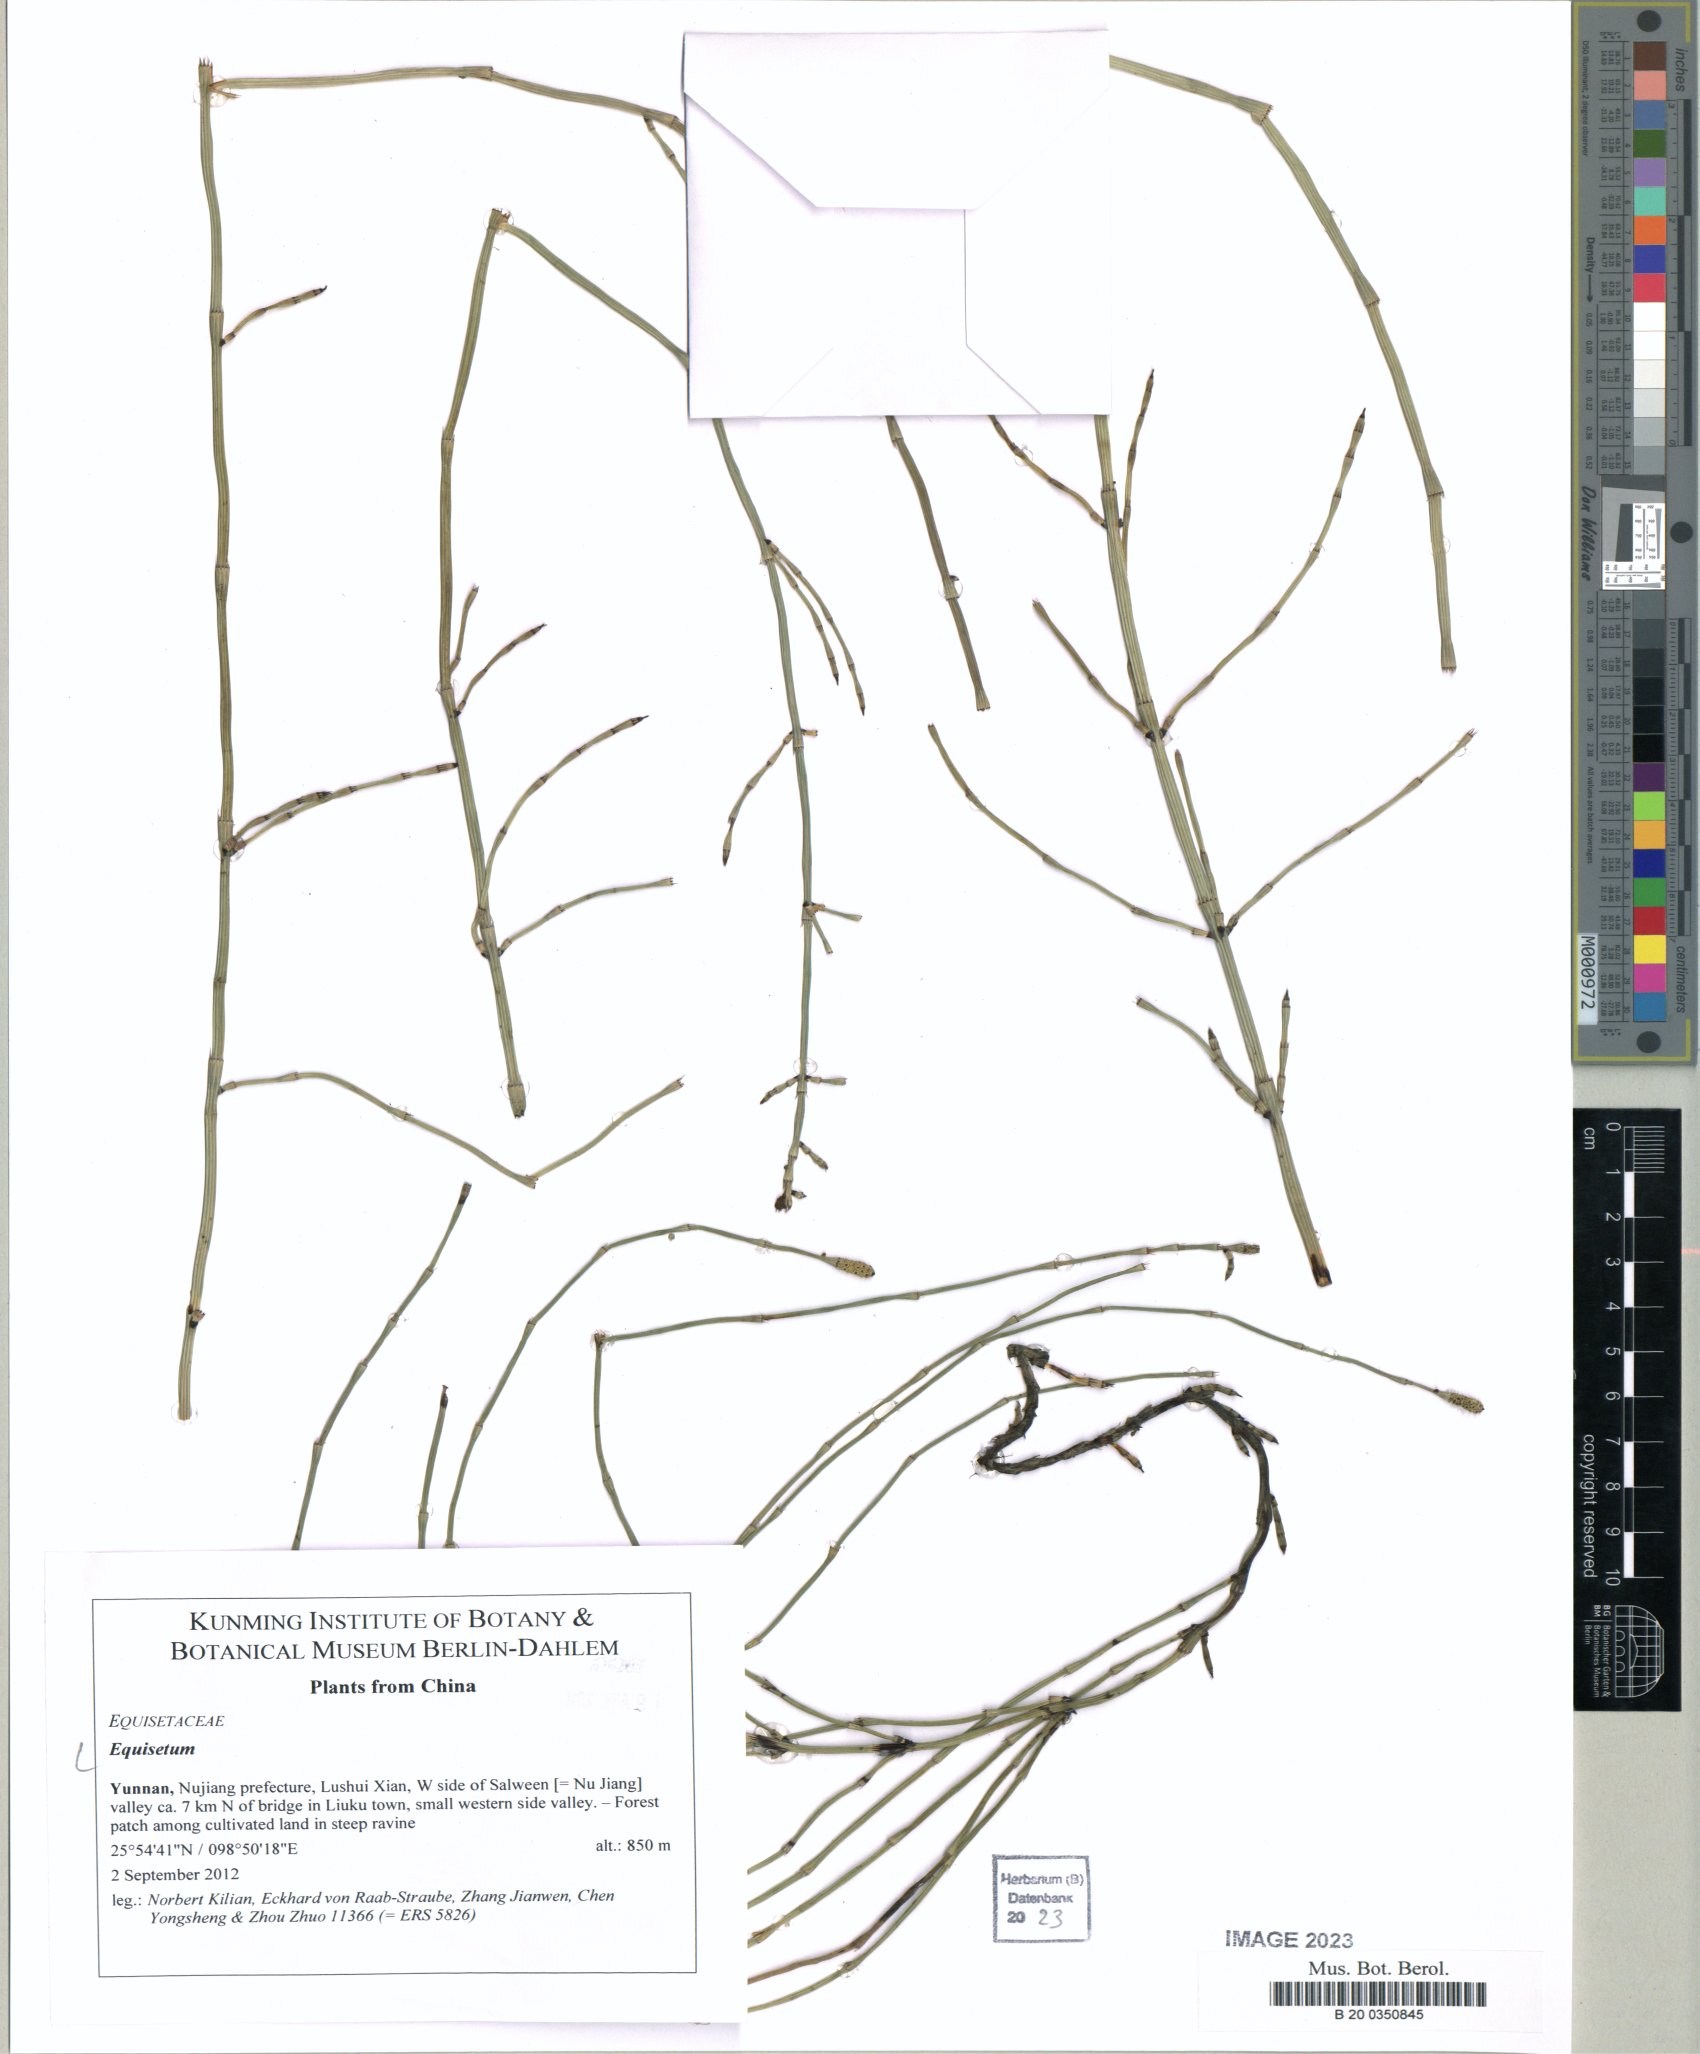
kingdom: Plantae
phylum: Tracheophyta
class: Polypodiopsida
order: Equisetales
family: Equisetaceae
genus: Equisetum
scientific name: Equisetum
